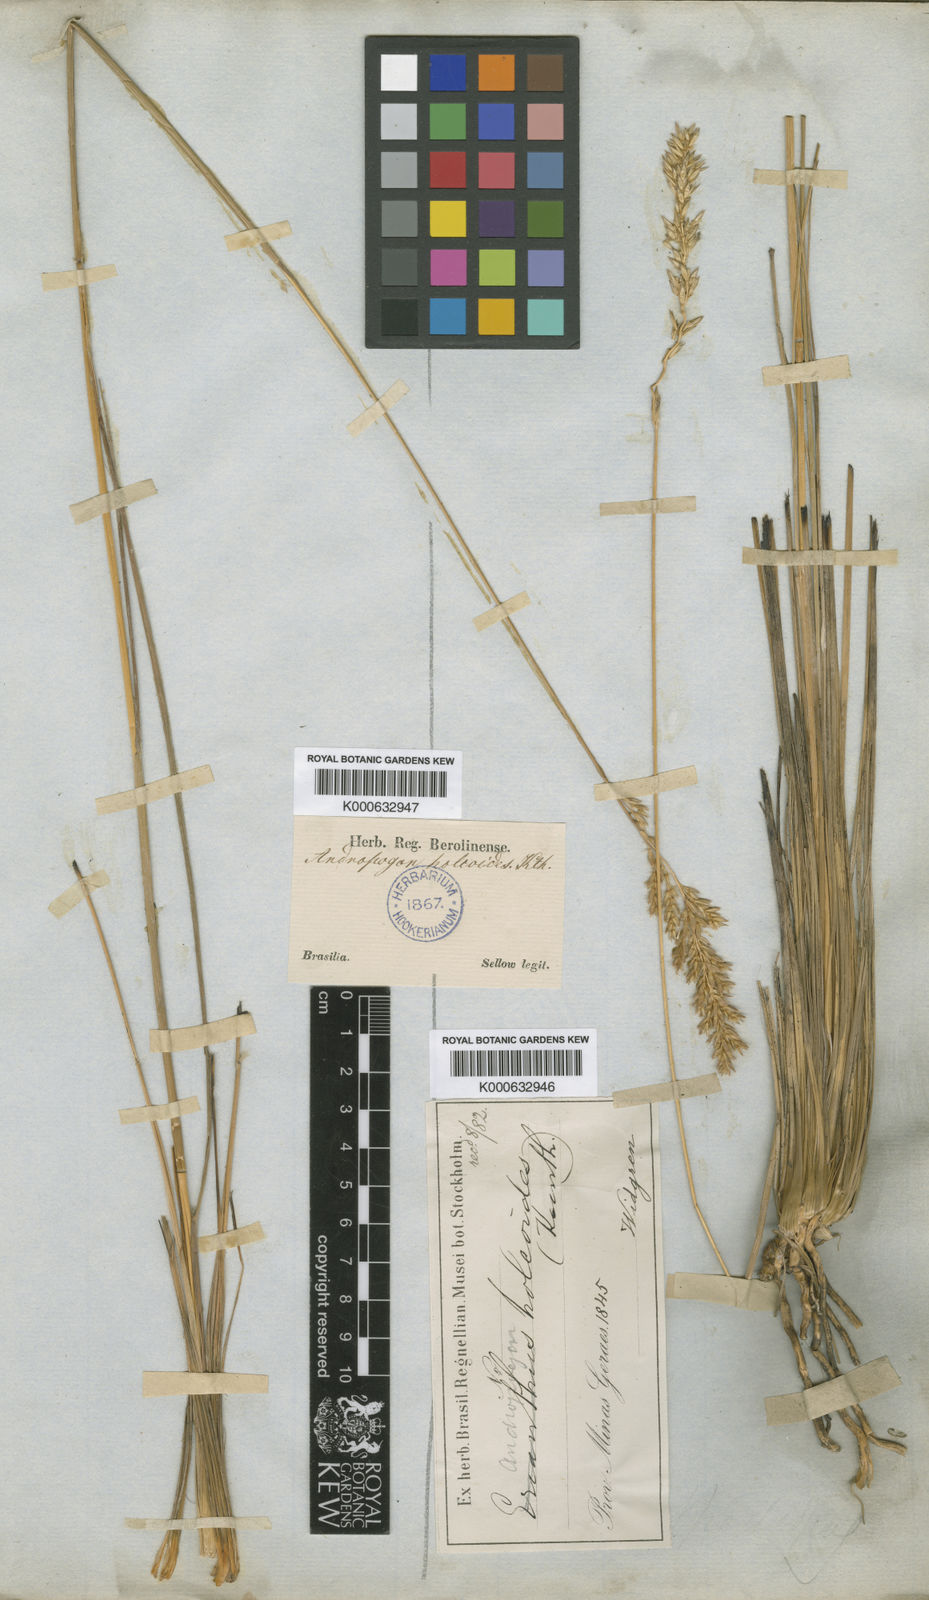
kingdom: Plantae
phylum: Tracheophyta
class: Liliopsida
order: Poales
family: Poaceae
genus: Eriochrysis
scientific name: Eriochrysis holcoides
